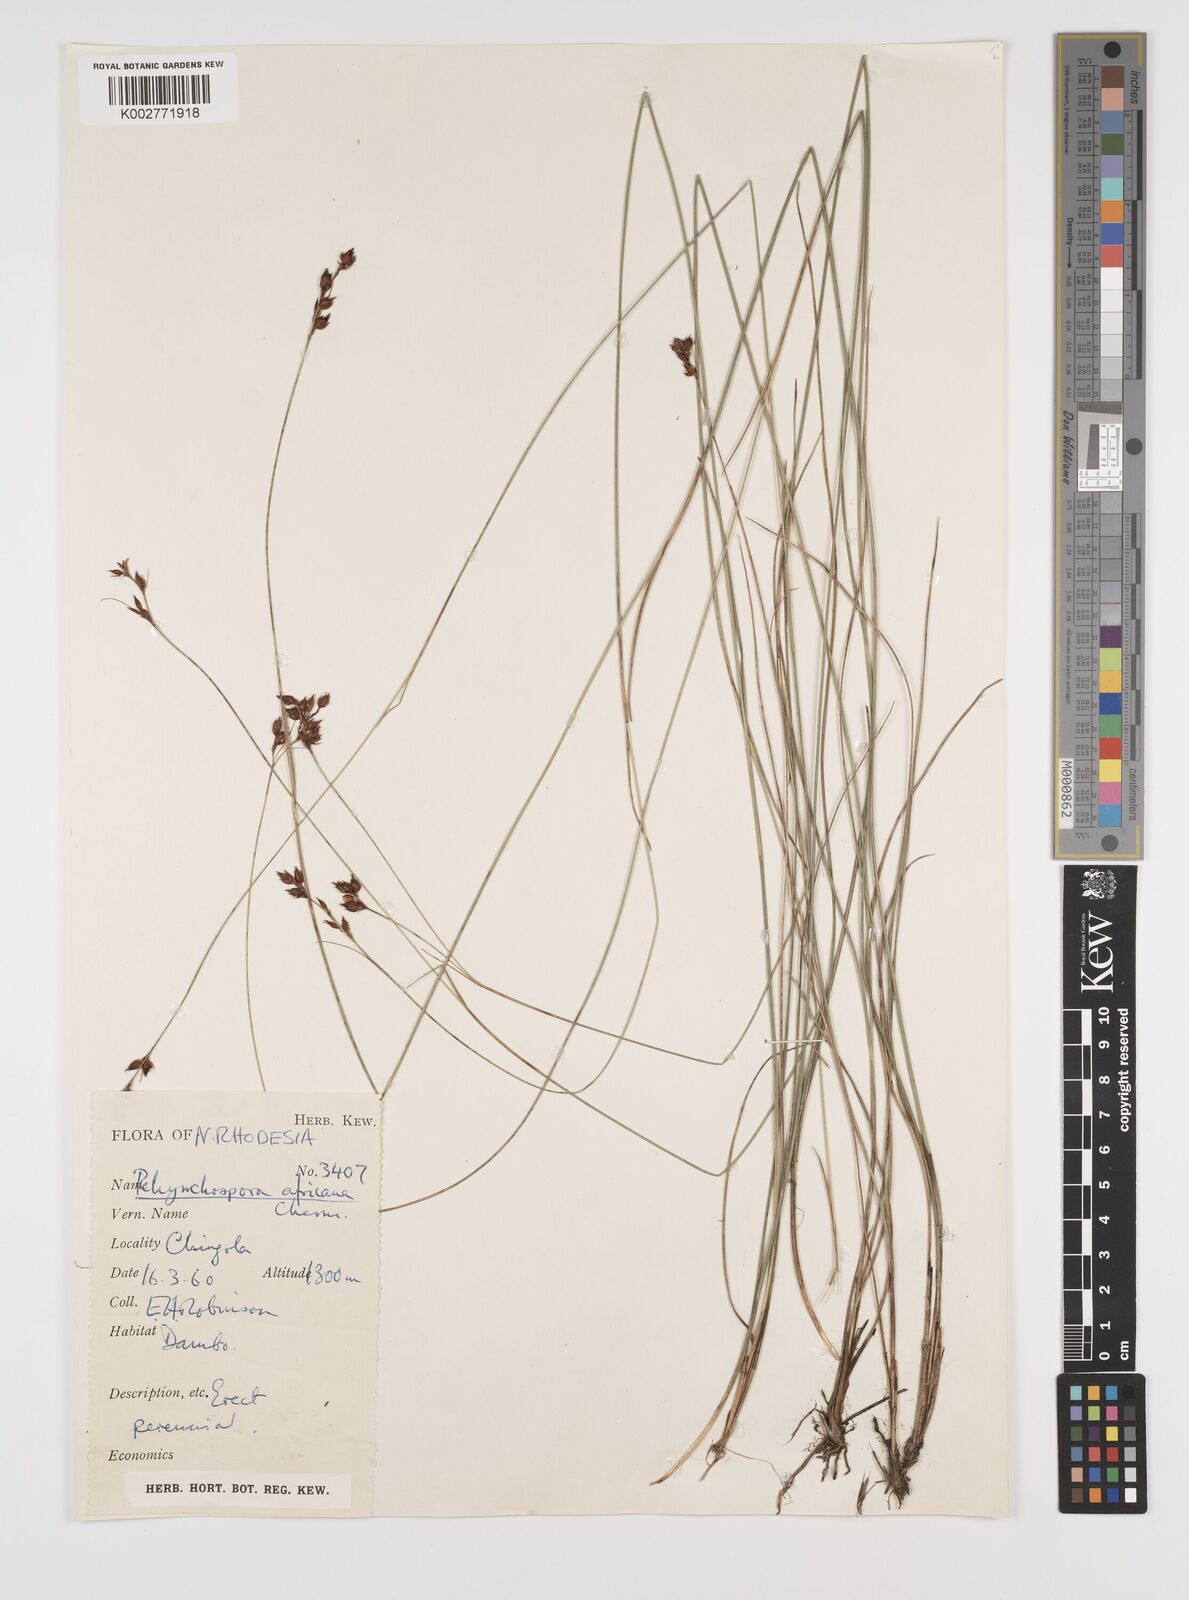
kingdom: Plantae
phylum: Tracheophyta
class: Liliopsida
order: Poales
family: Cyperaceae
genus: Rhynchospora
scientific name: Rhynchospora angolensis
